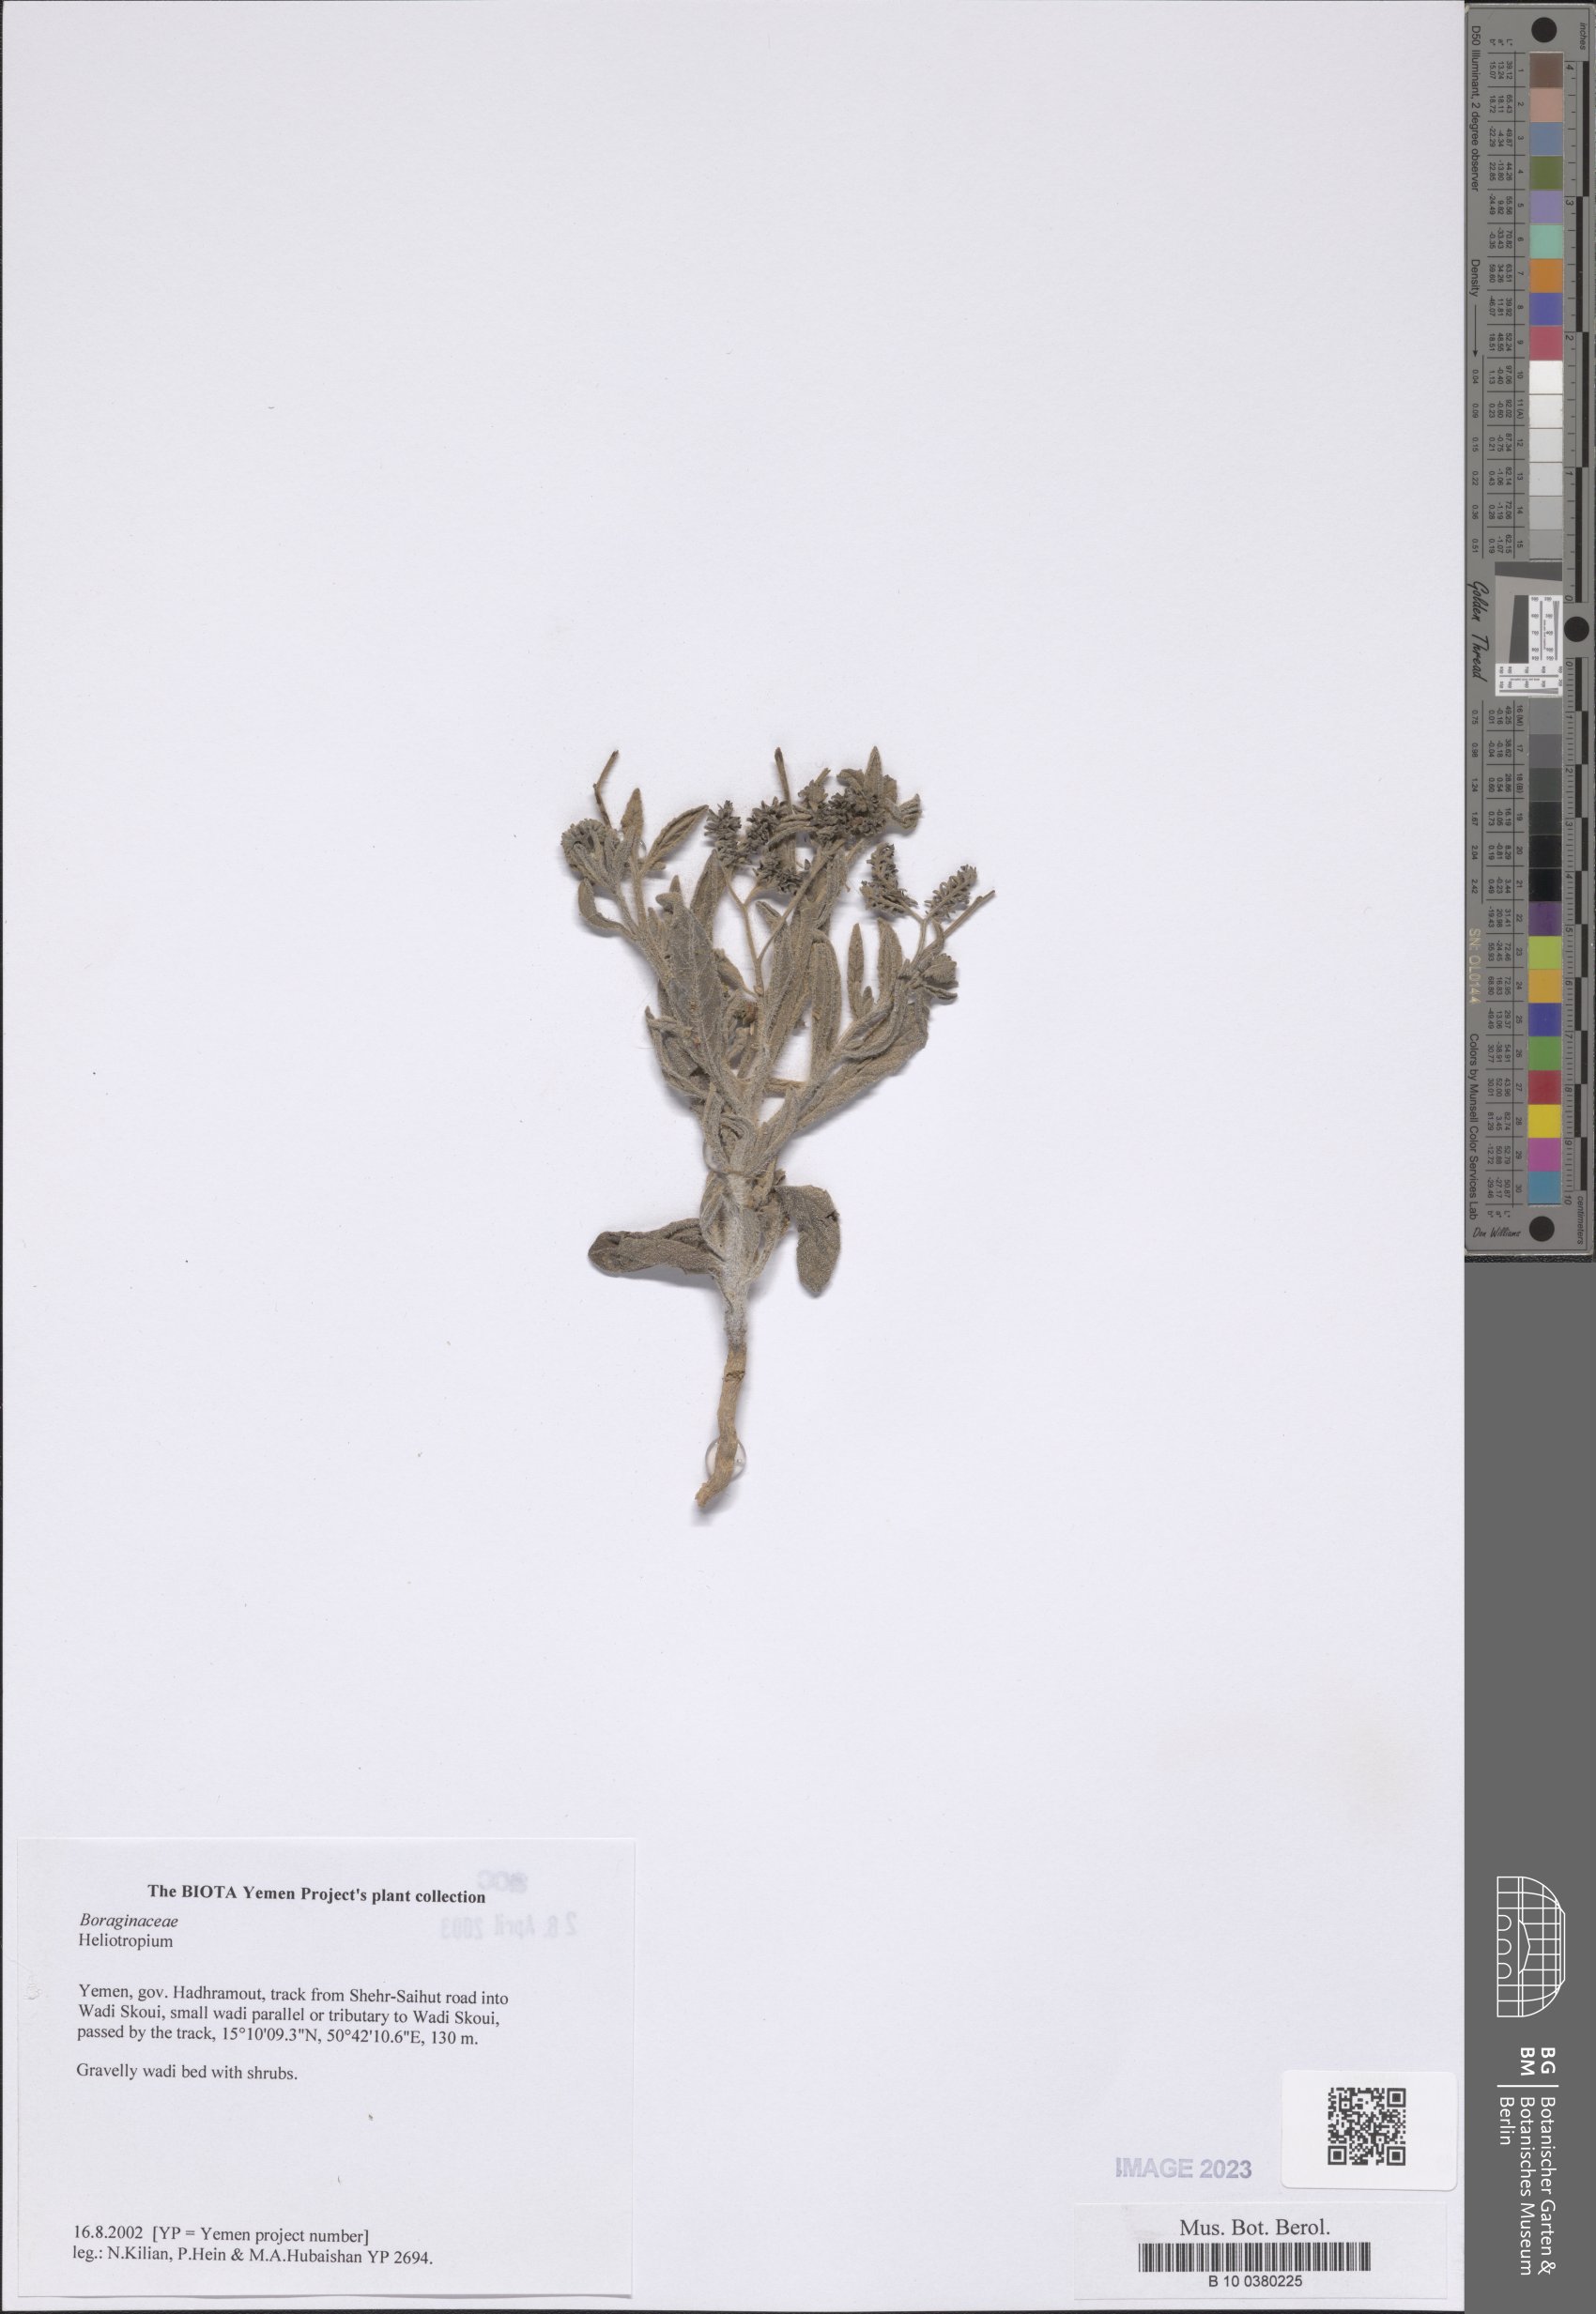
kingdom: Plantae
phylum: Tracheophyta
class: Magnoliopsida
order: Boraginales
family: Heliotropiaceae
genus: Heliotropium
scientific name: Heliotropium
